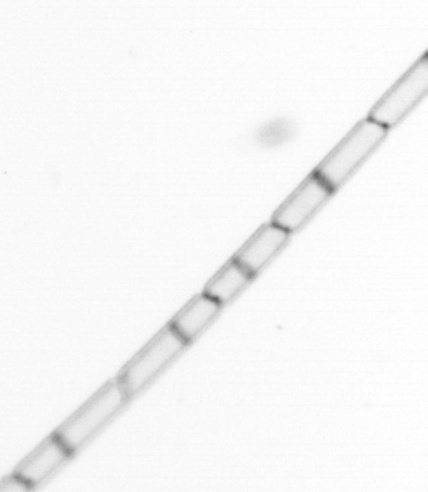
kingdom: Chromista
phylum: Ochrophyta
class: Bacillariophyceae
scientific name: Bacillariophyceae
